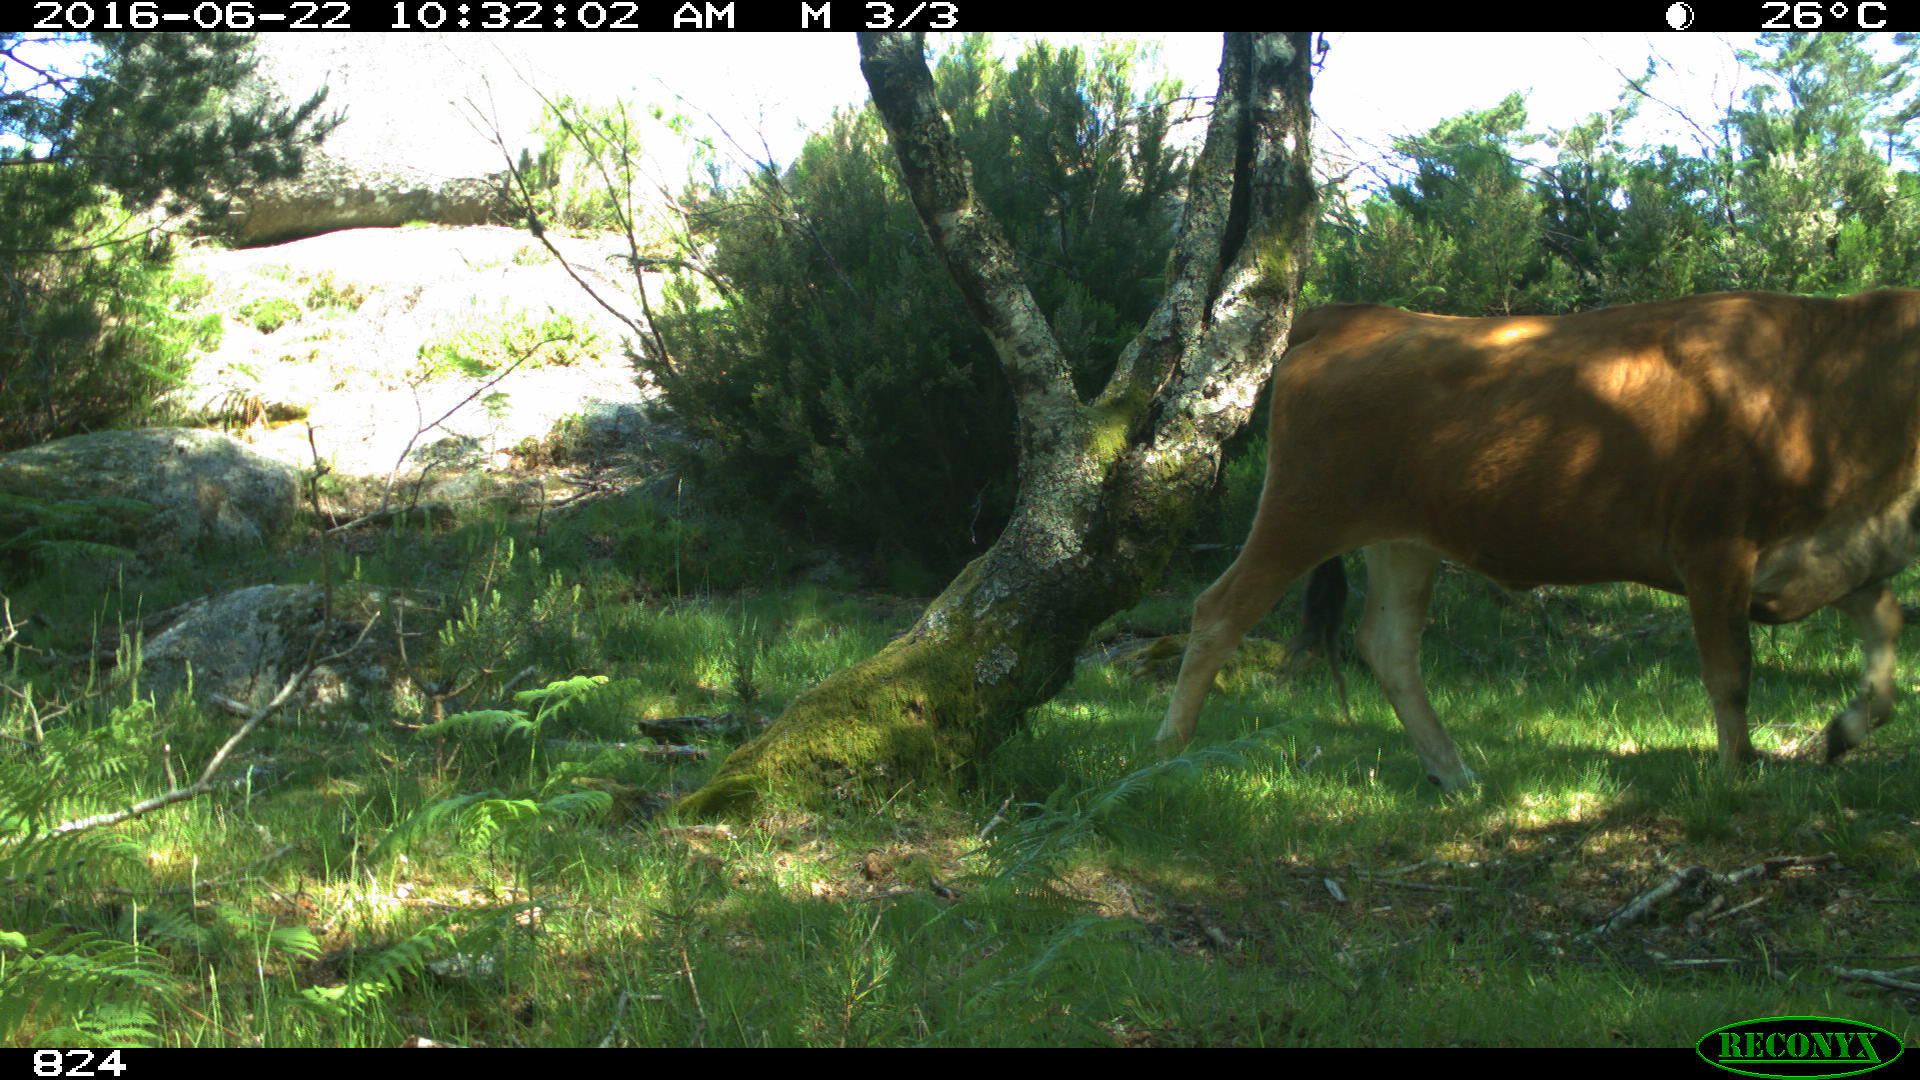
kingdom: Animalia
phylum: Chordata
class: Mammalia
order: Artiodactyla
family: Bovidae
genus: Bos
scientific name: Bos taurus
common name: Domesticated cattle
